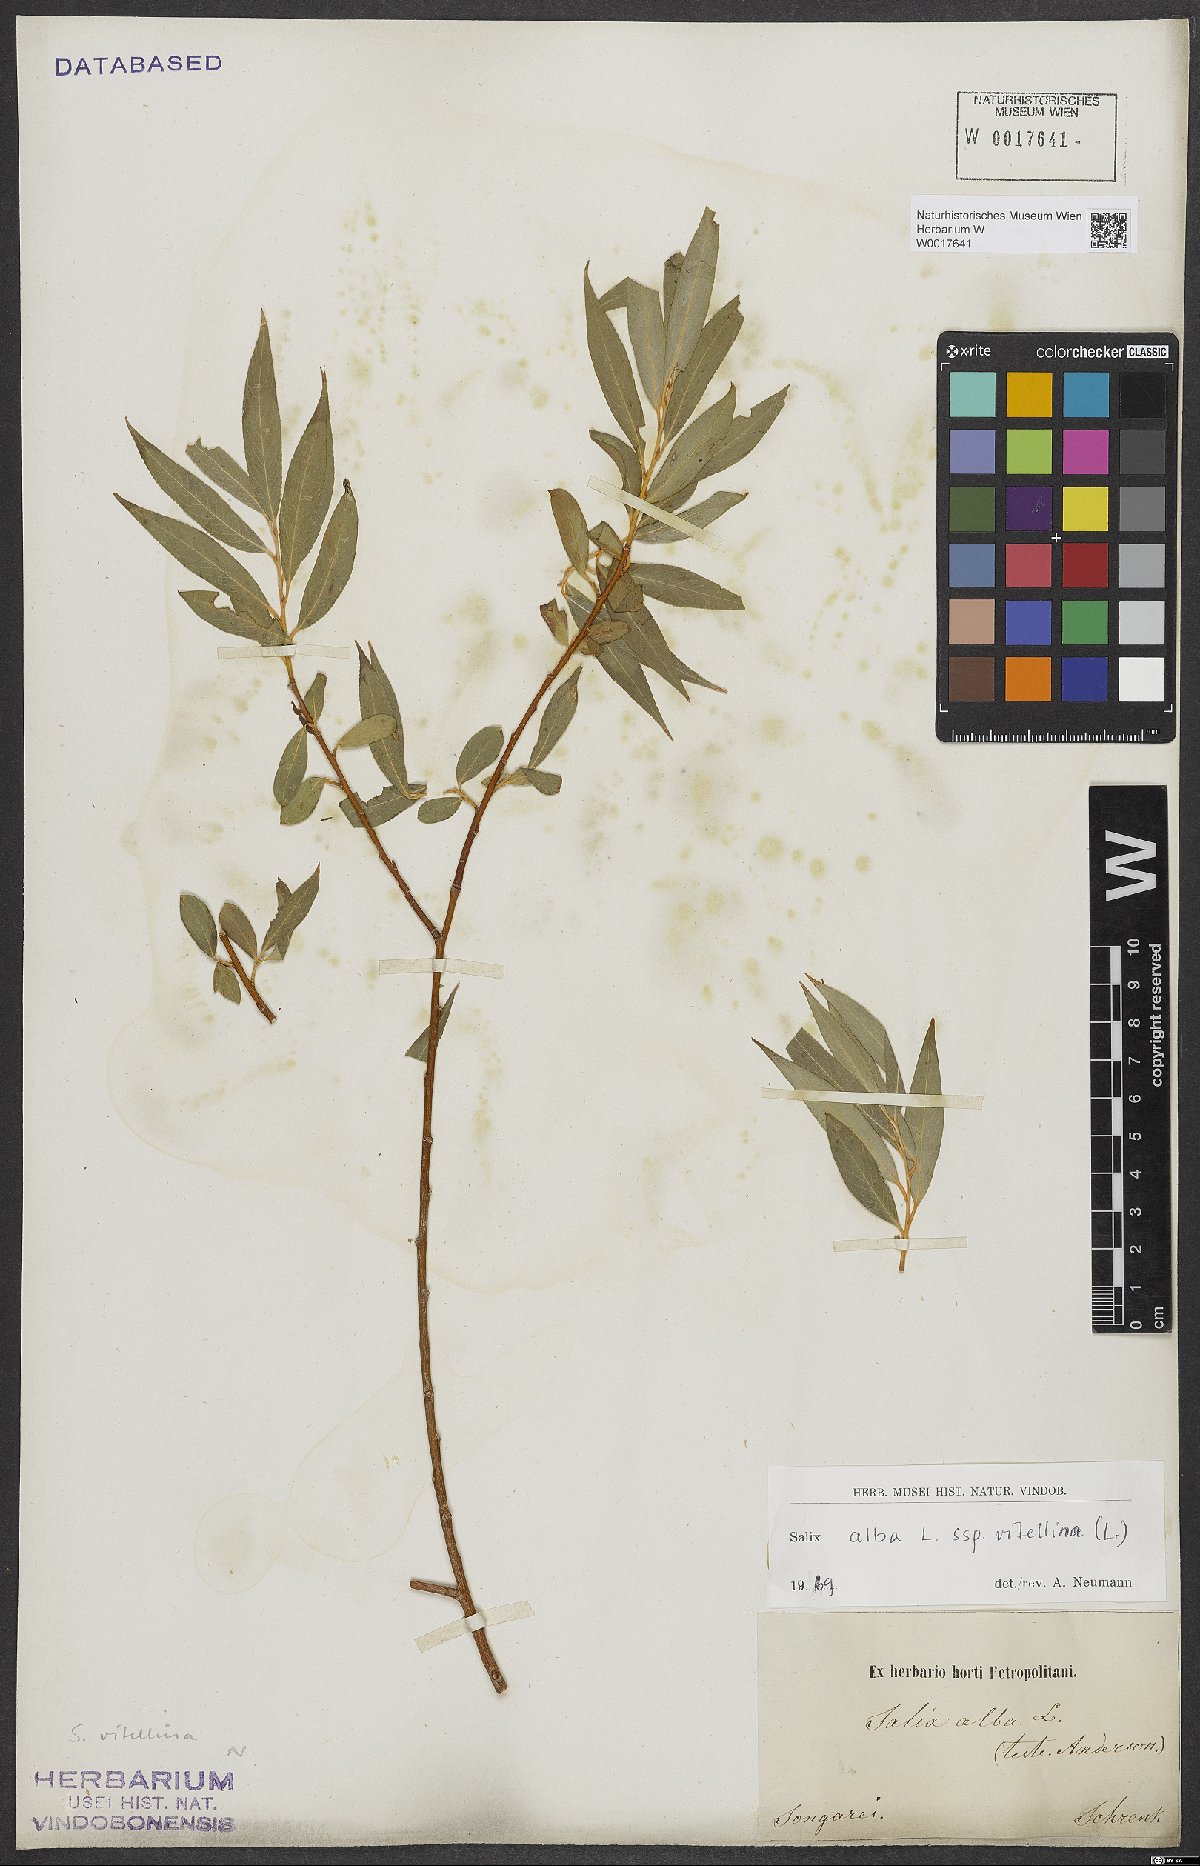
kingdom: Plantae
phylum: Tracheophyta
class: Magnoliopsida
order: Malpighiales
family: Salicaceae
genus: Salix
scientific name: Salix alba
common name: White willow
